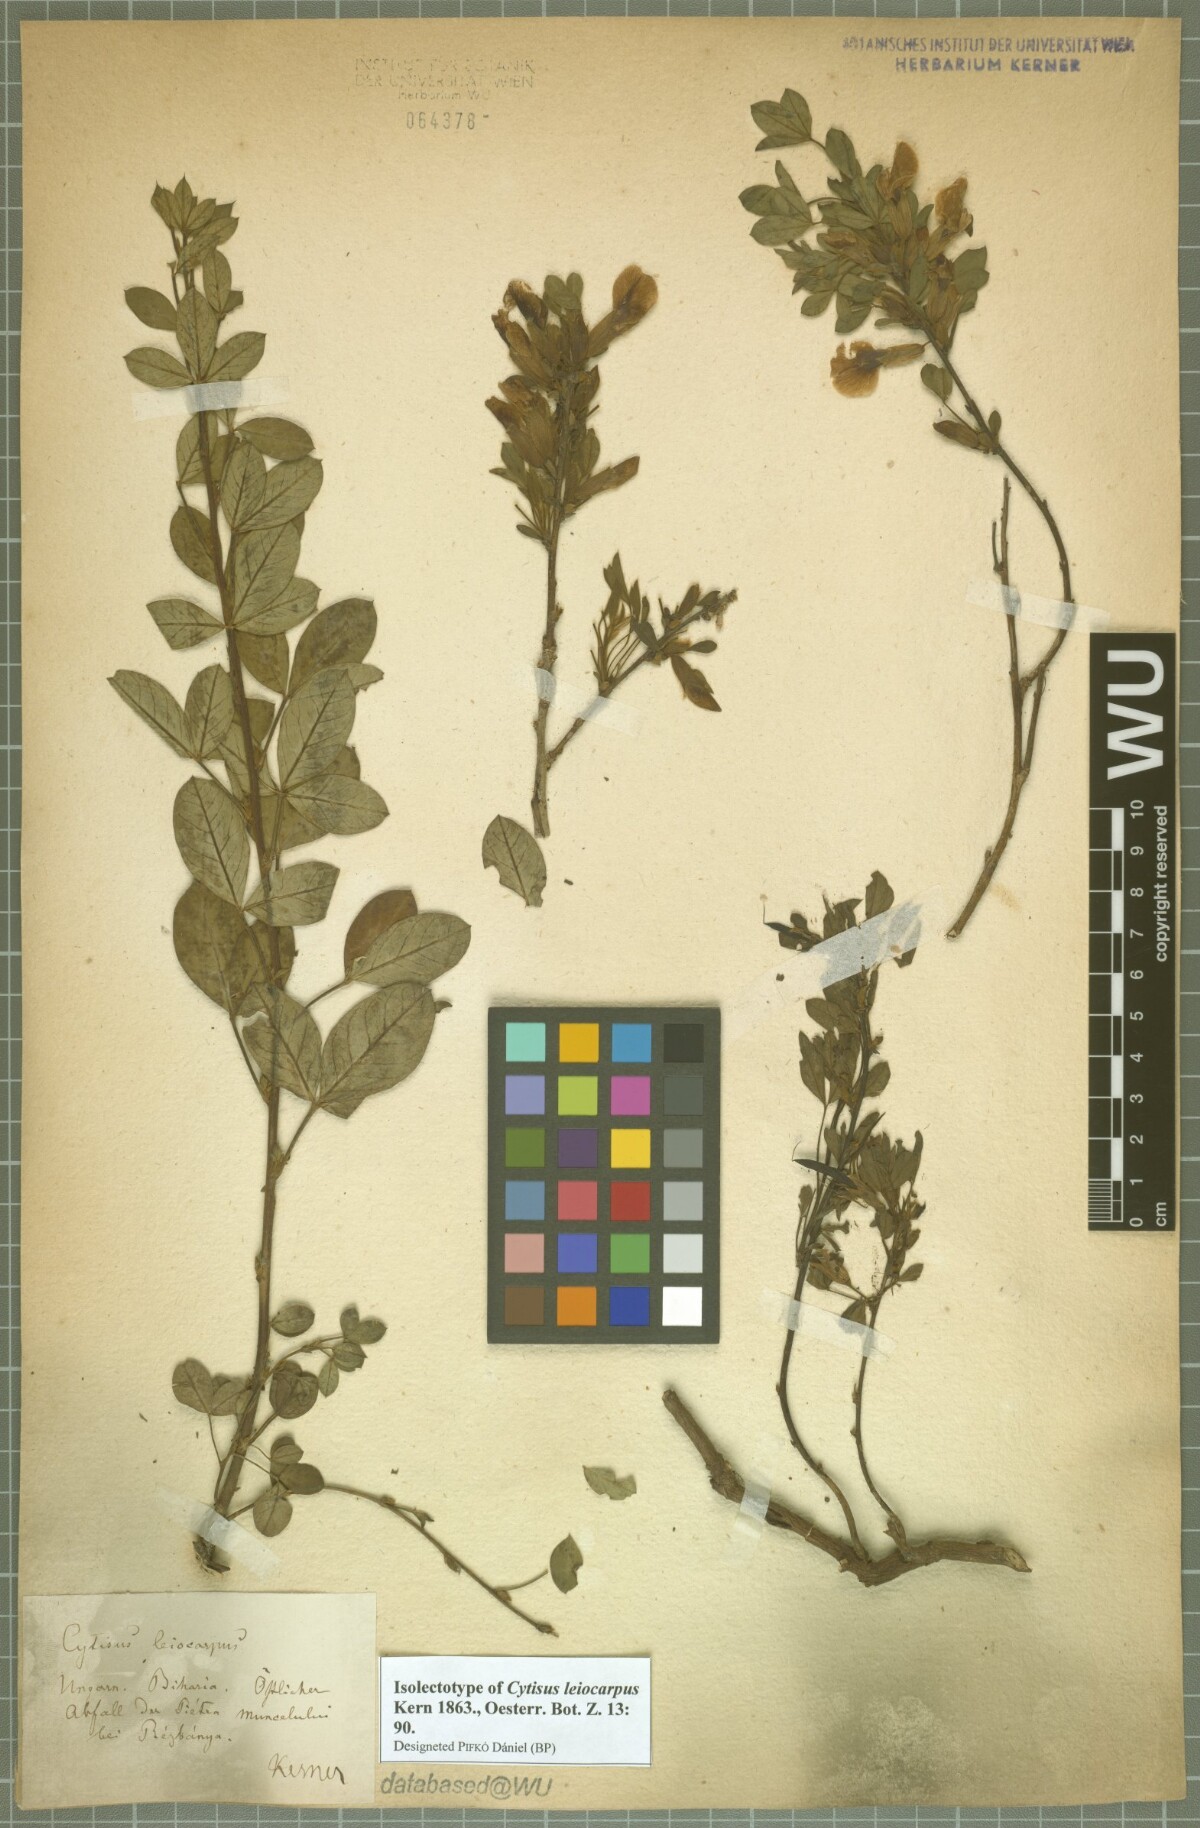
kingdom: Plantae
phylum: Tracheophyta
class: Magnoliopsida
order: Fabales
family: Fabaceae
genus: Chamaecytisus
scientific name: Chamaecytisus leiocarpus
